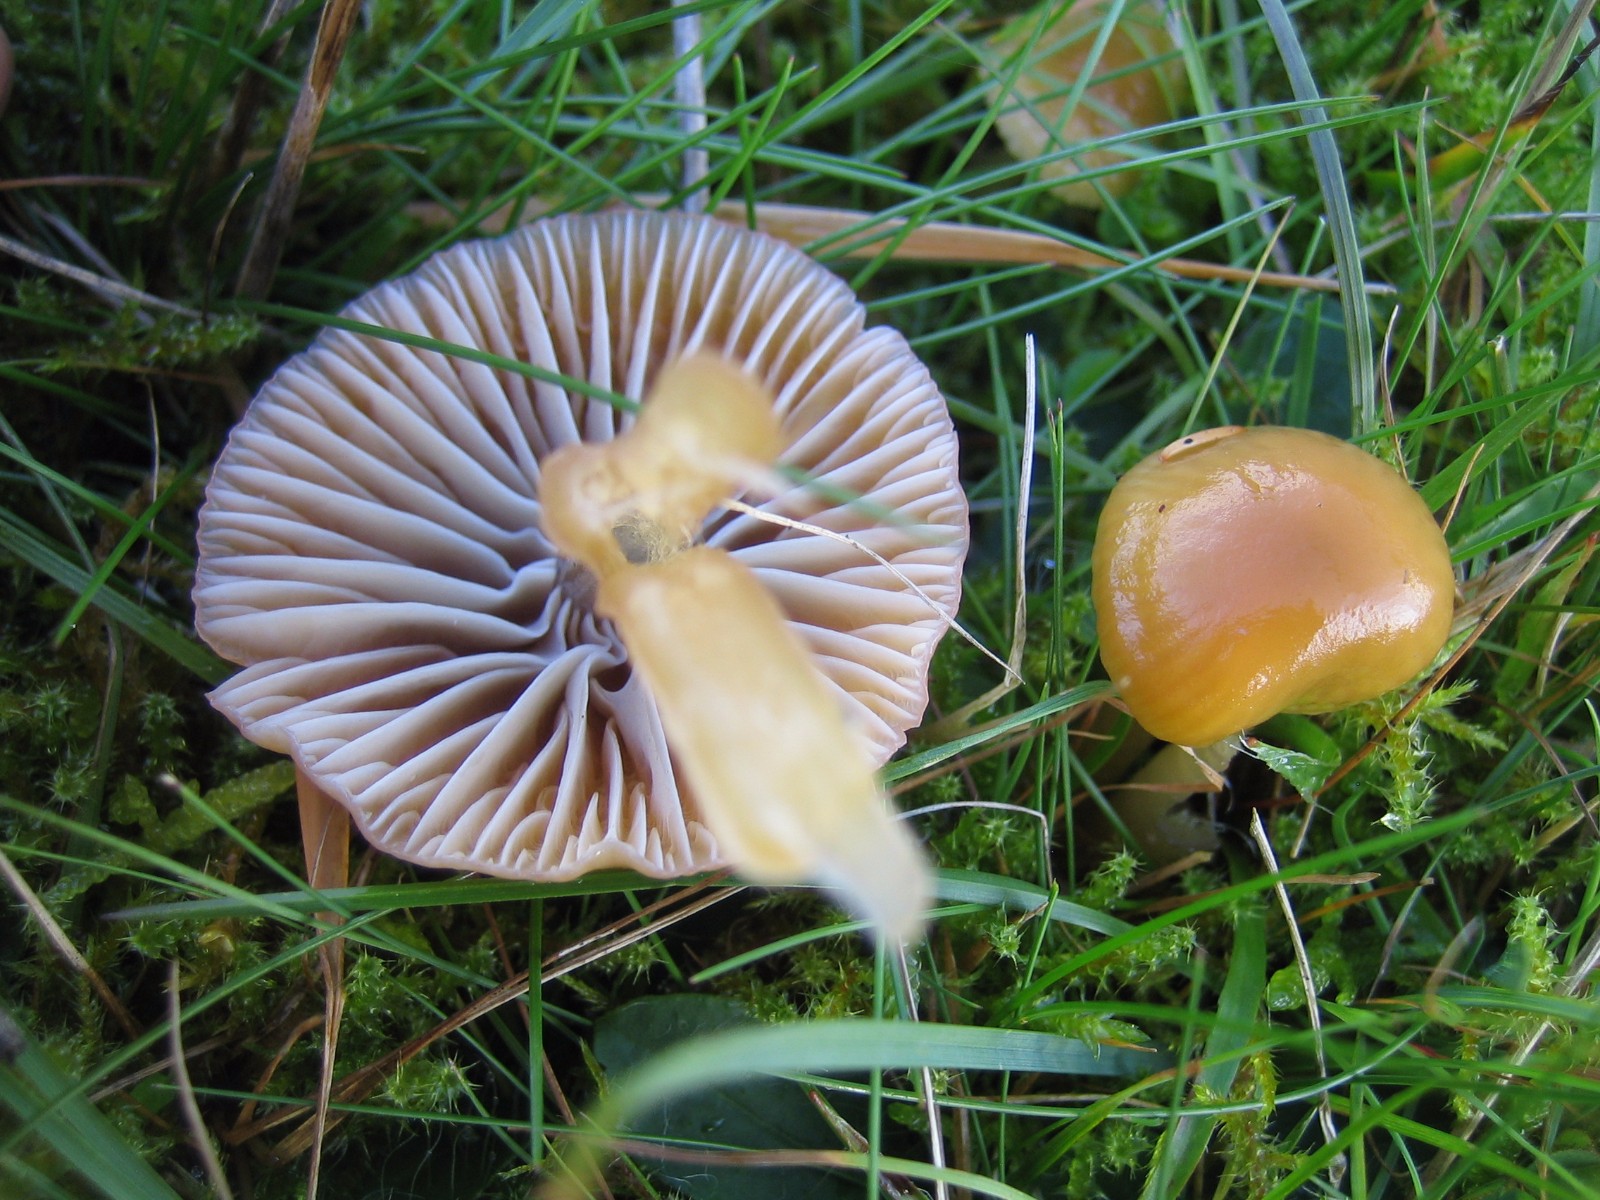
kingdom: Fungi
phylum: Basidiomycota
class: Agaricomycetes
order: Agaricales
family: Hygrophoraceae
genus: Gliophorus
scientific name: Gliophorus laetus
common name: brusk-vokshat
